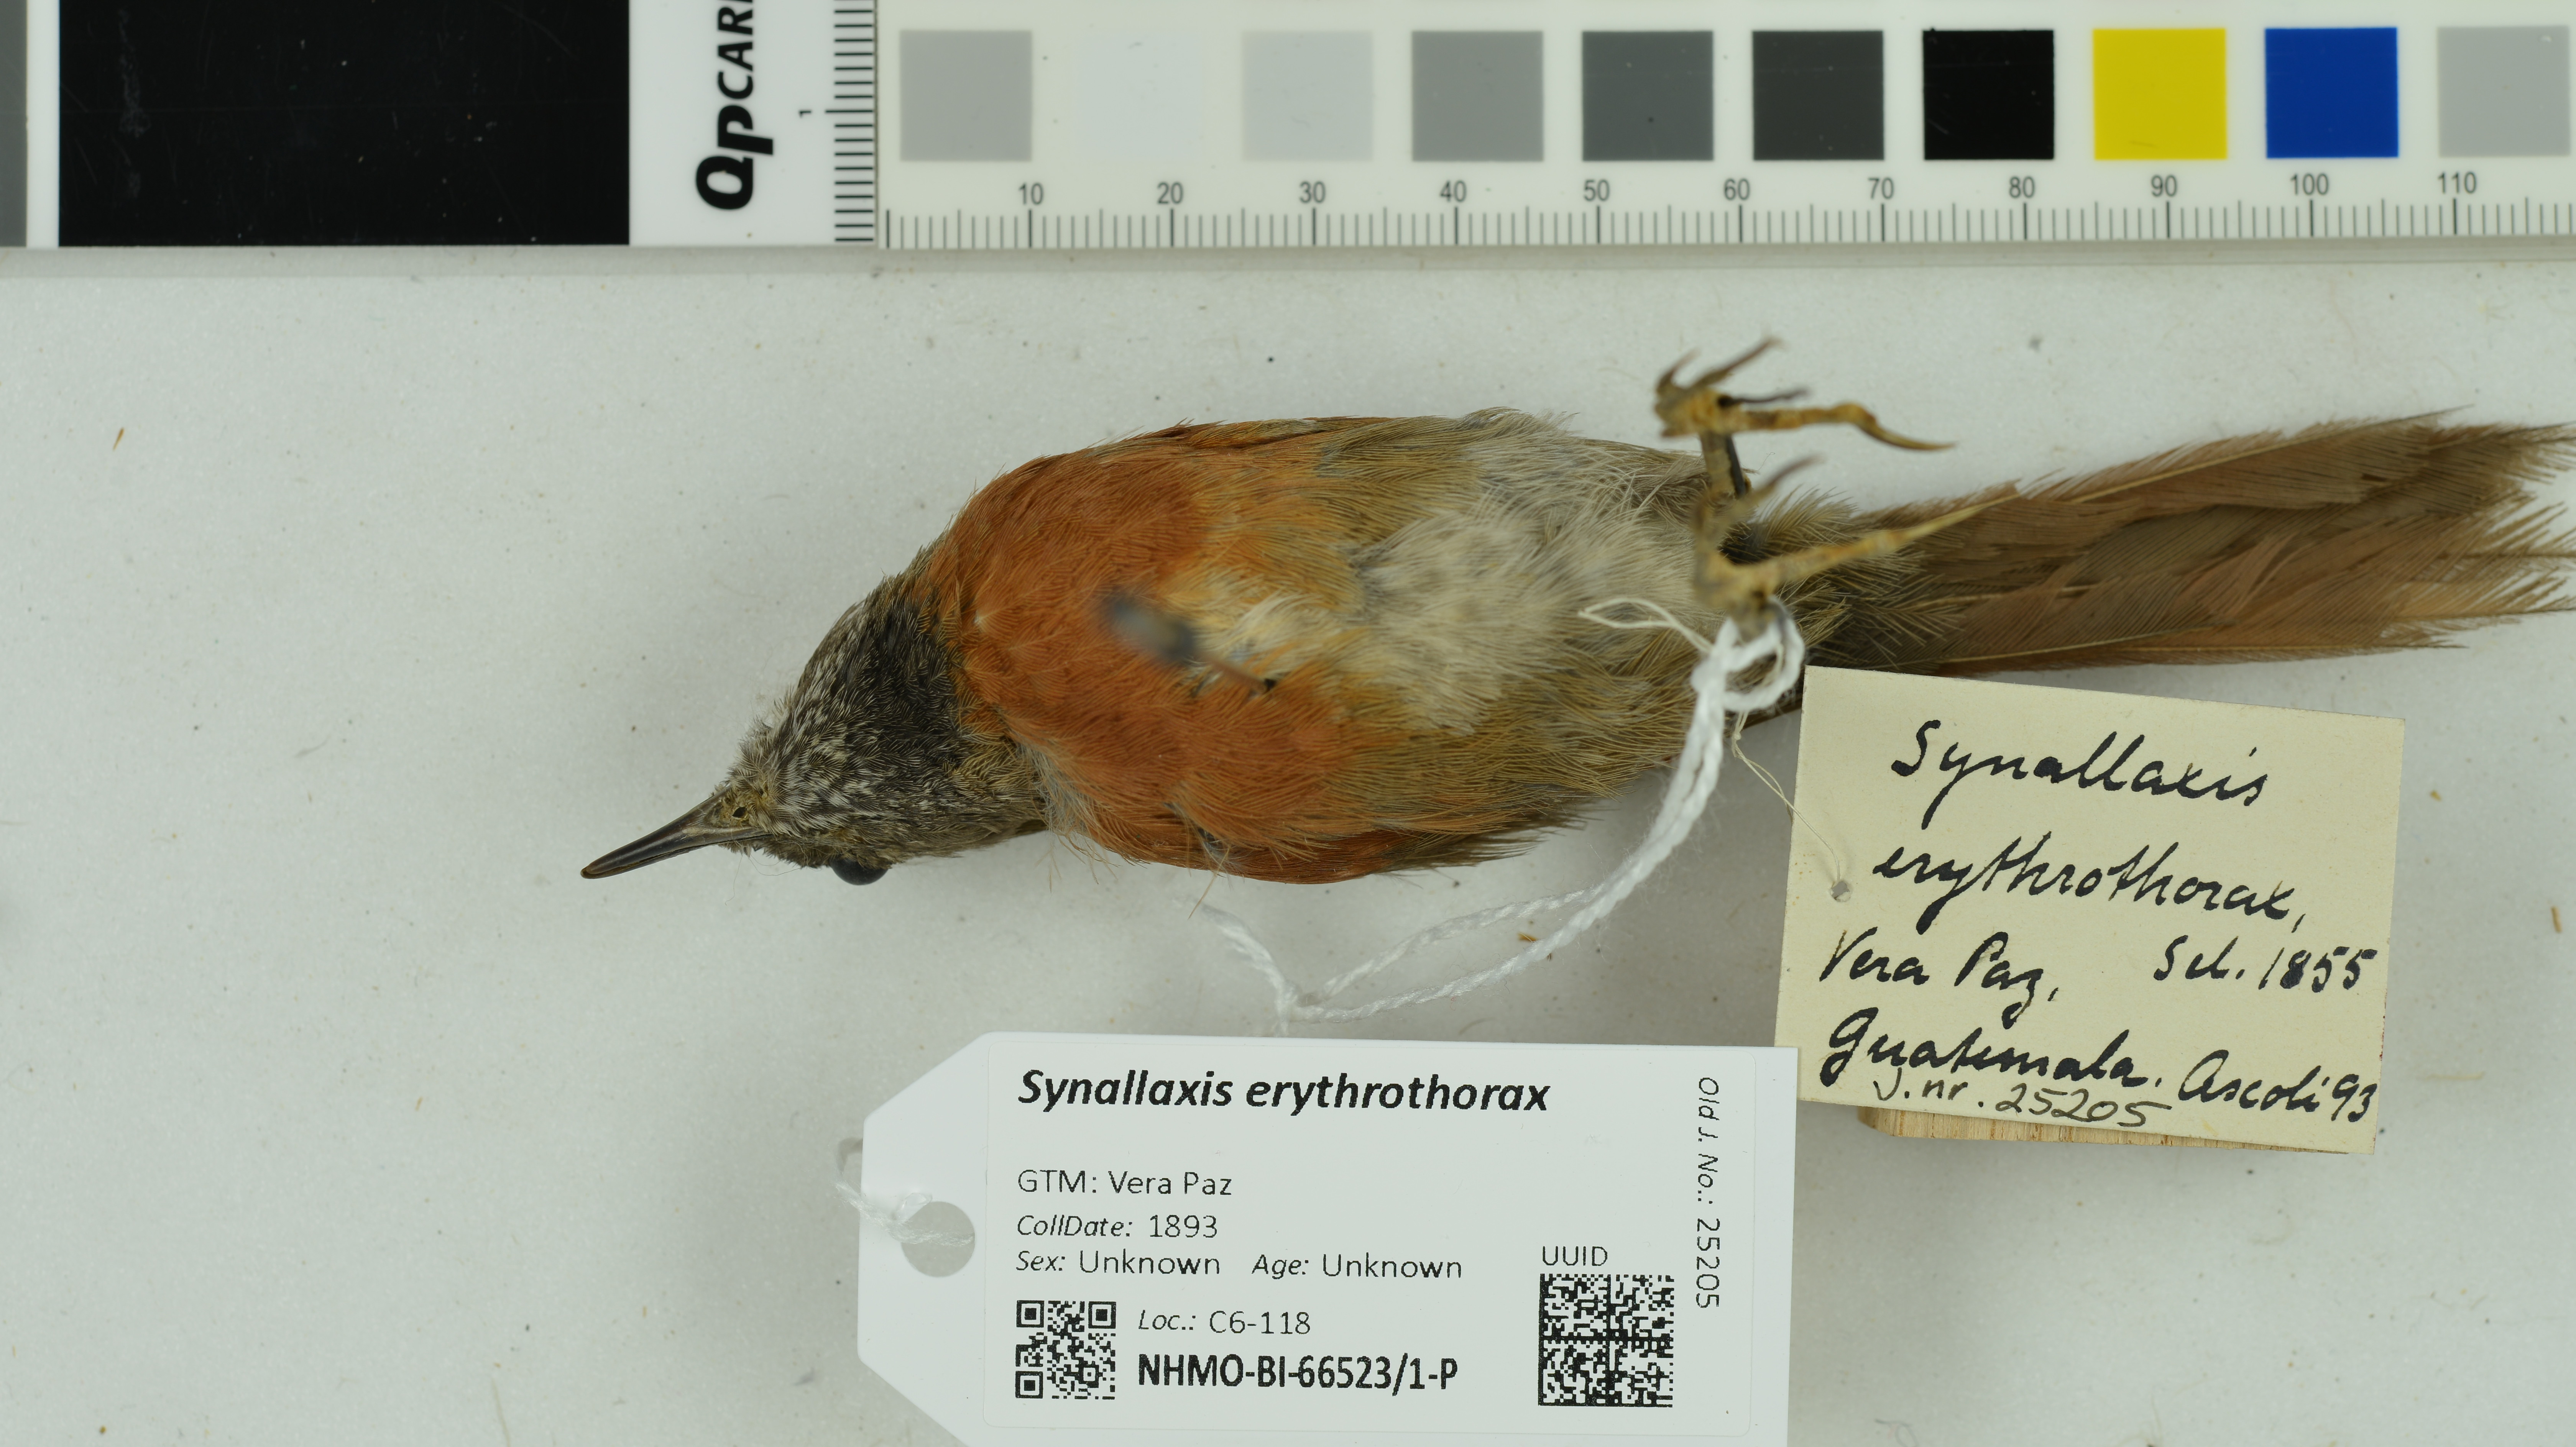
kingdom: Animalia
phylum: Chordata
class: Aves
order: Passeriformes
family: Furnariidae
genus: Synallaxis
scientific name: Synallaxis erythrothorax
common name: Rufous-breasted spinetail
